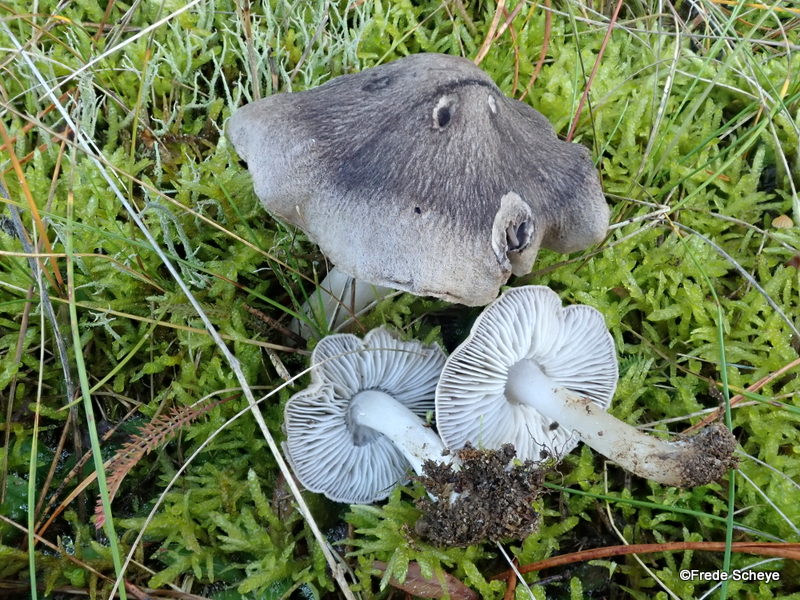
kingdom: Fungi
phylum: Basidiomycota
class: Agaricomycetes
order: Agaricales
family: Tricholomataceae
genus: Tricholoma
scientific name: Tricholoma terreum
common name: jordfarvet ridderhat
